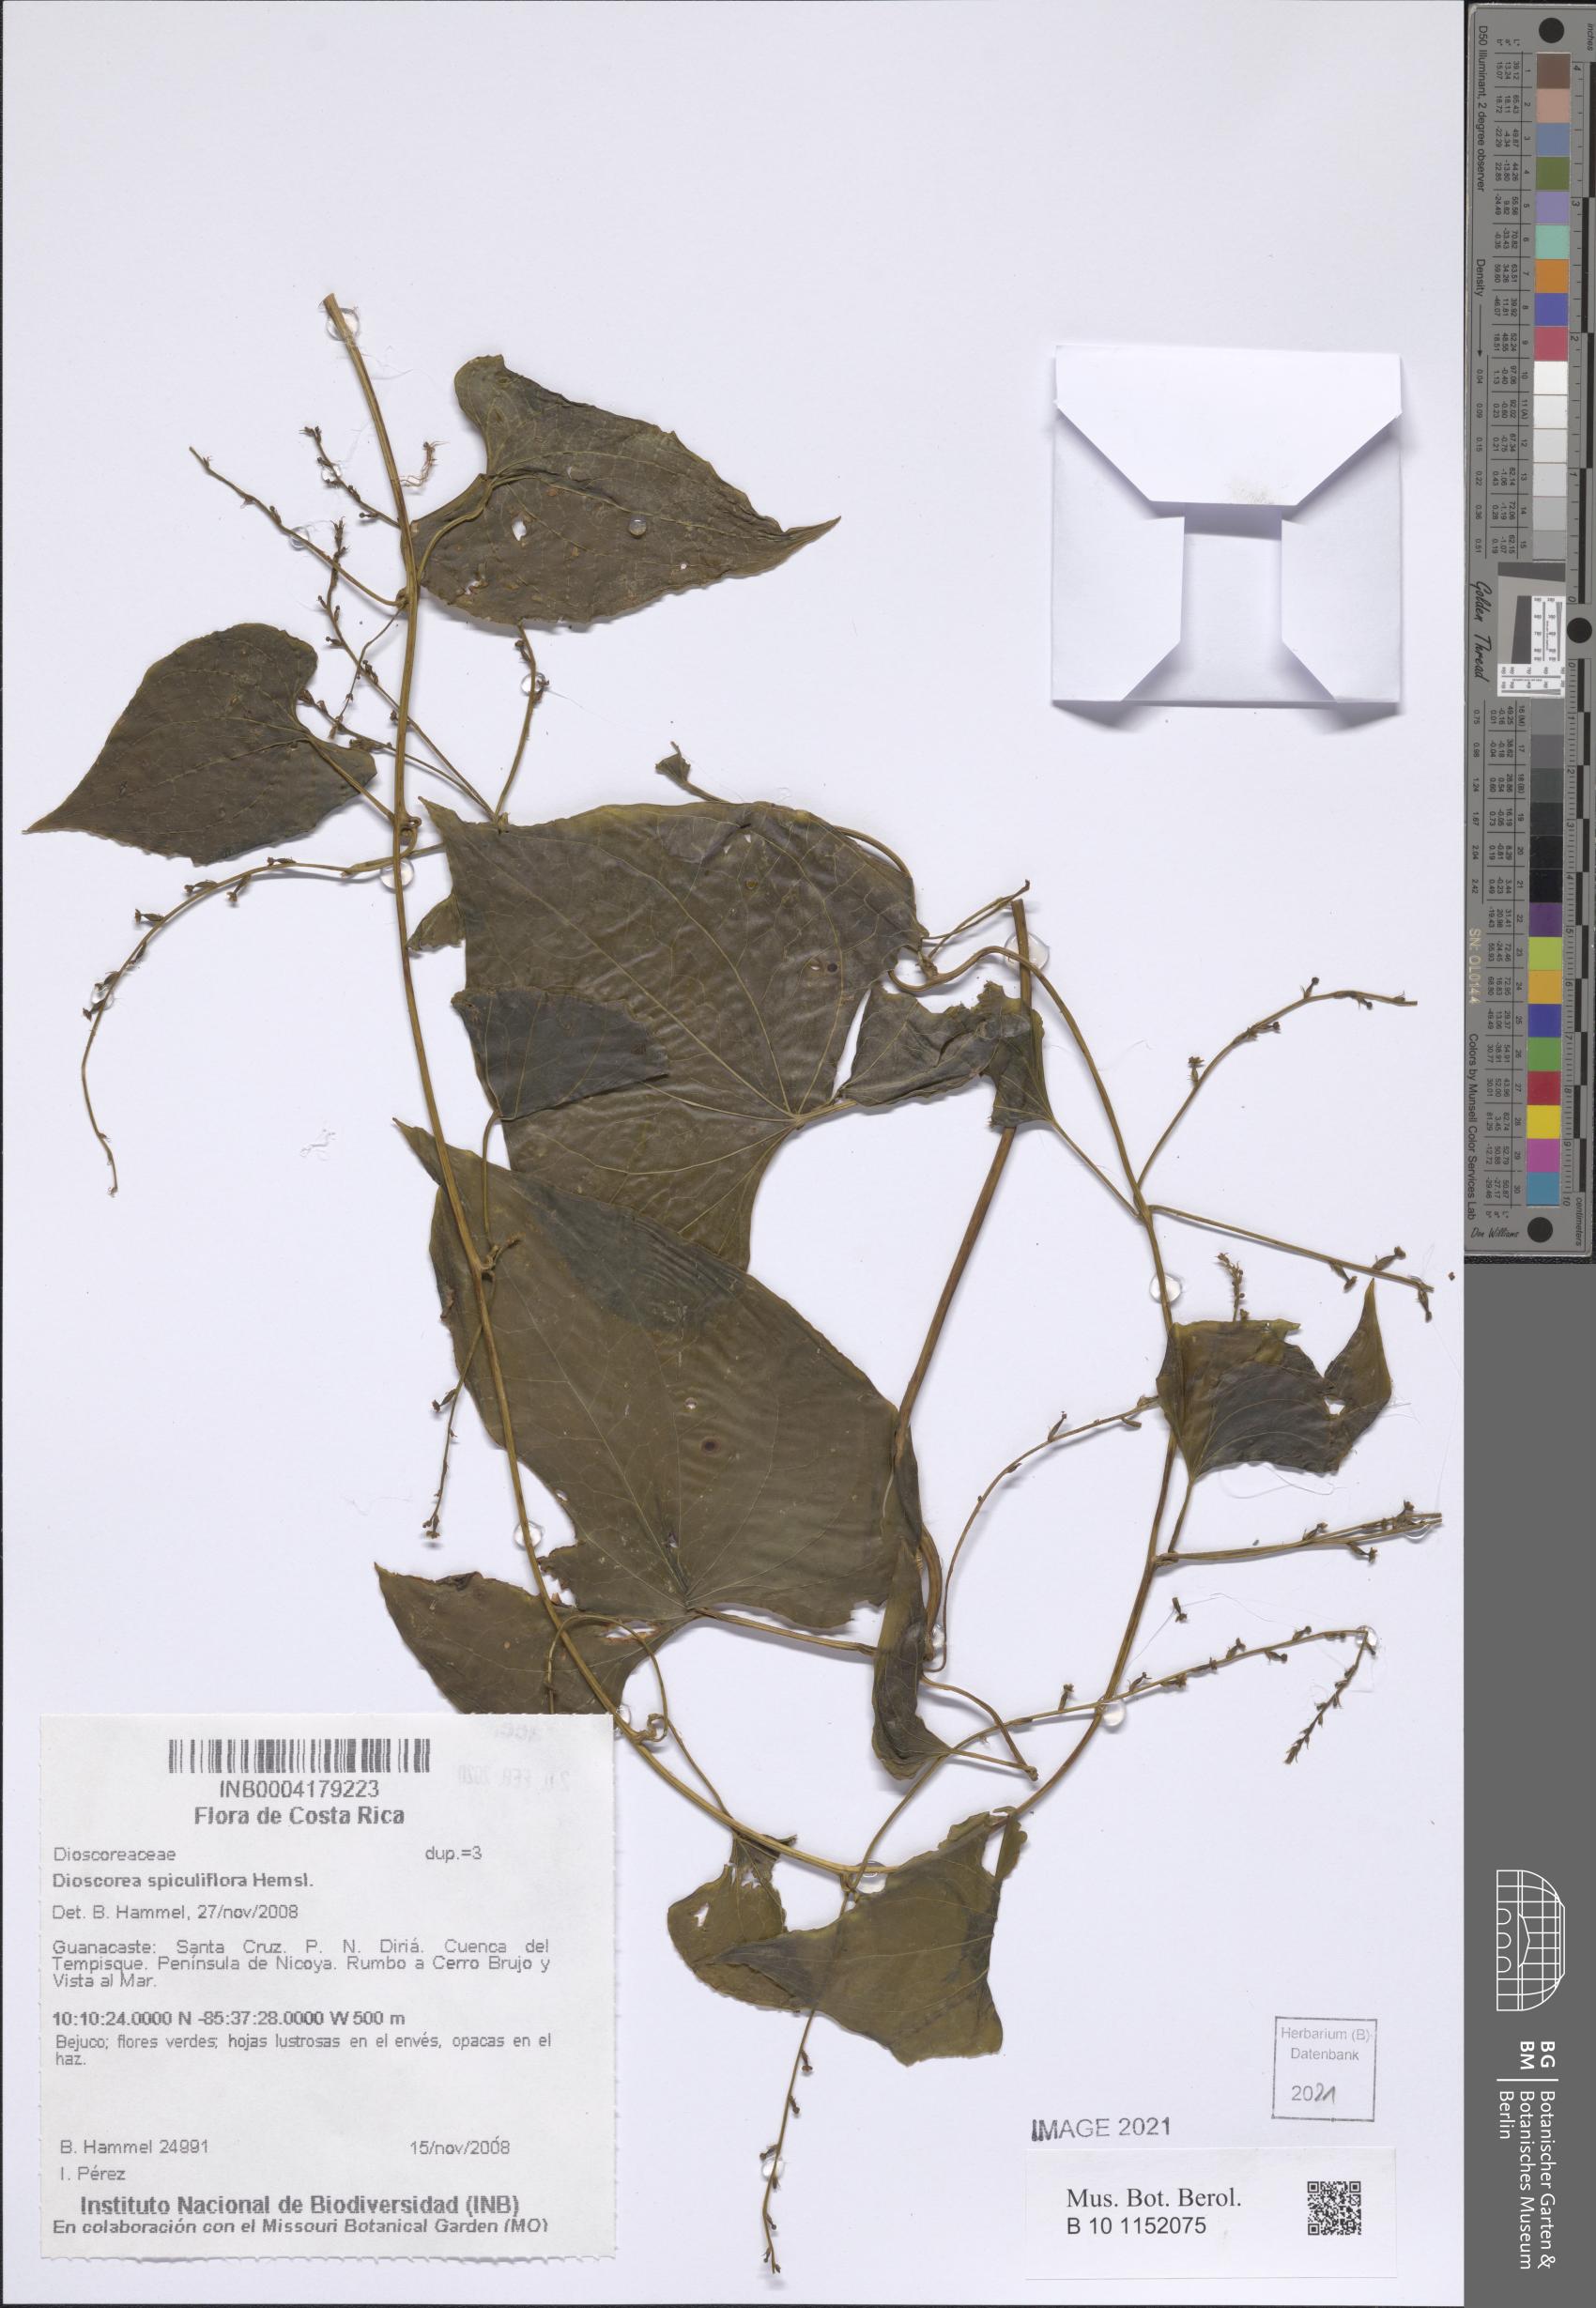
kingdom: Plantae
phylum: Tracheophyta
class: Liliopsida
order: Dioscoreales
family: Dioscoreaceae
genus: Dioscorea
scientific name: Dioscorea spiculiflora
